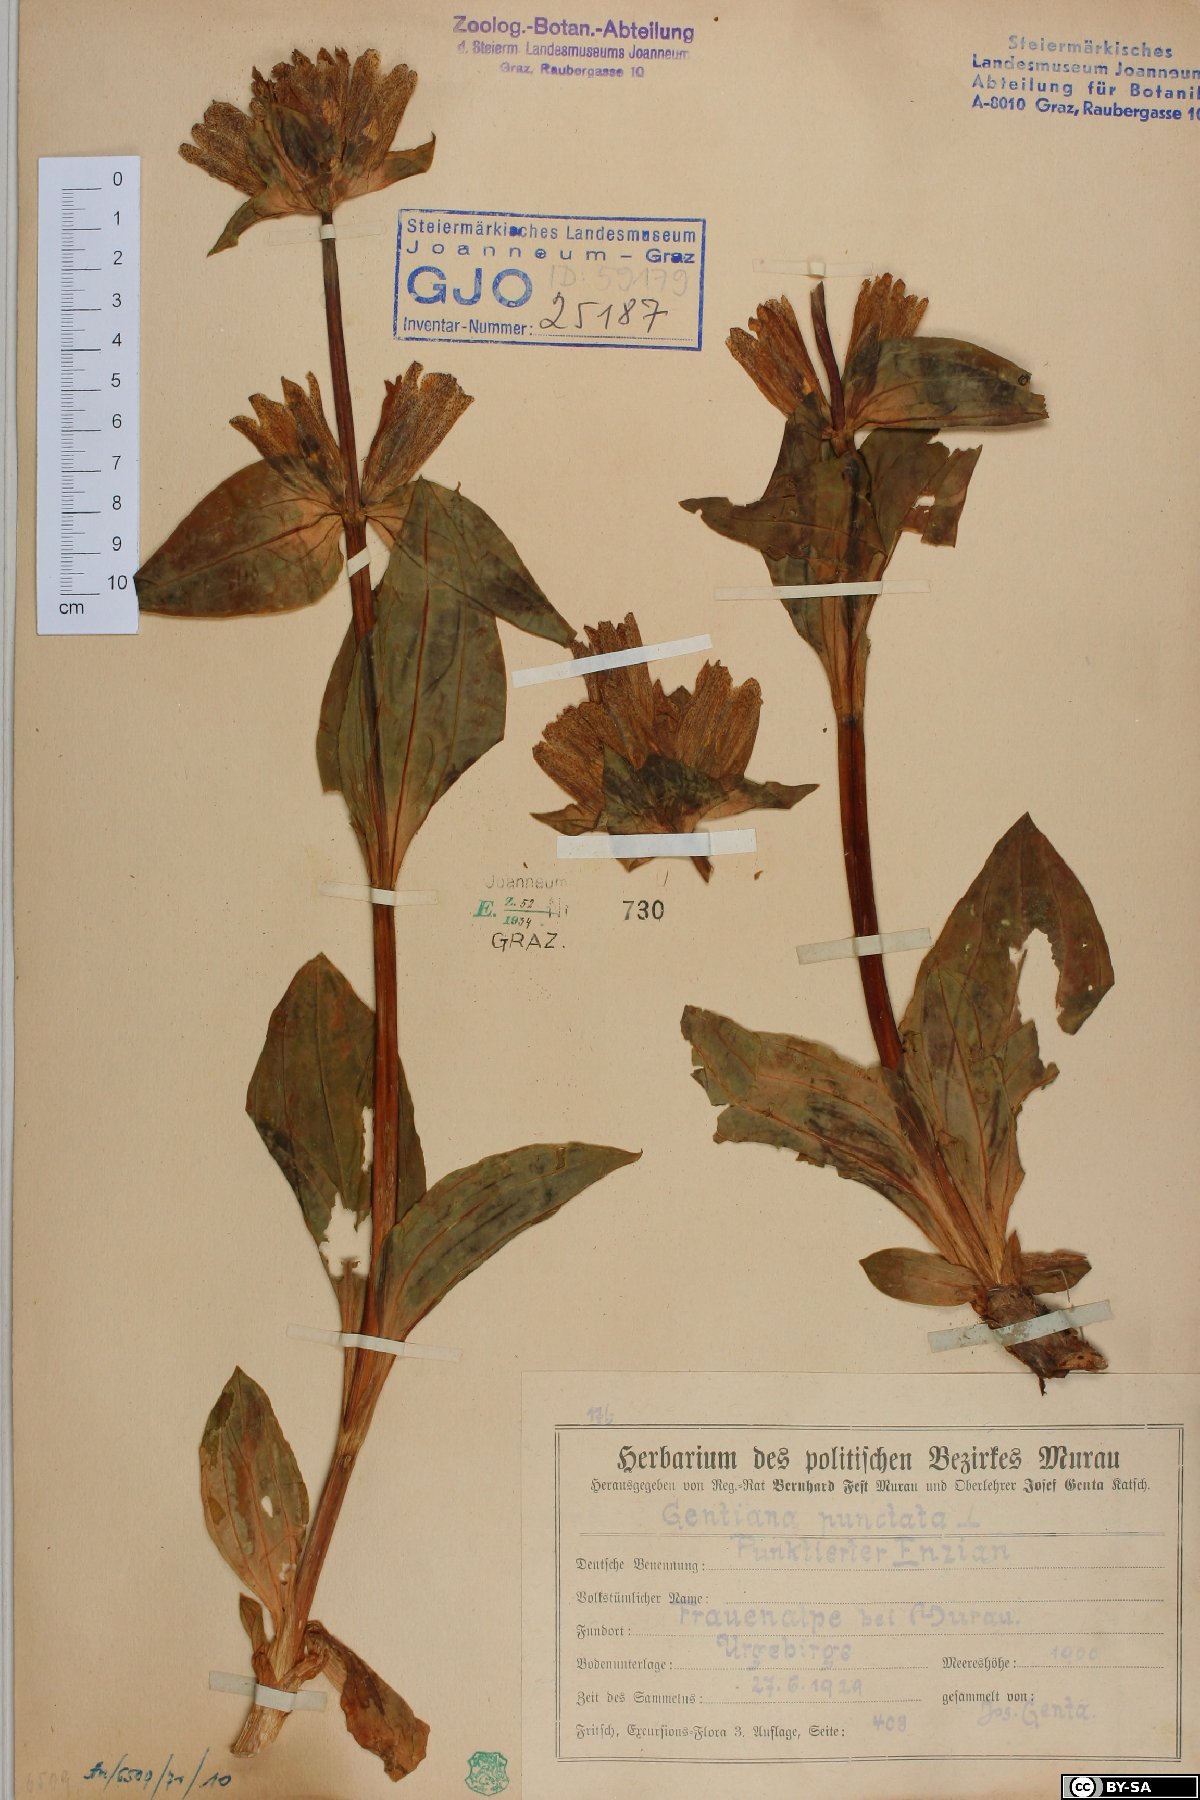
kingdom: Plantae
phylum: Tracheophyta
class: Magnoliopsida
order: Gentianales
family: Gentianaceae
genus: Gentiana
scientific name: Gentiana punctata
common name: Spotted gentian
